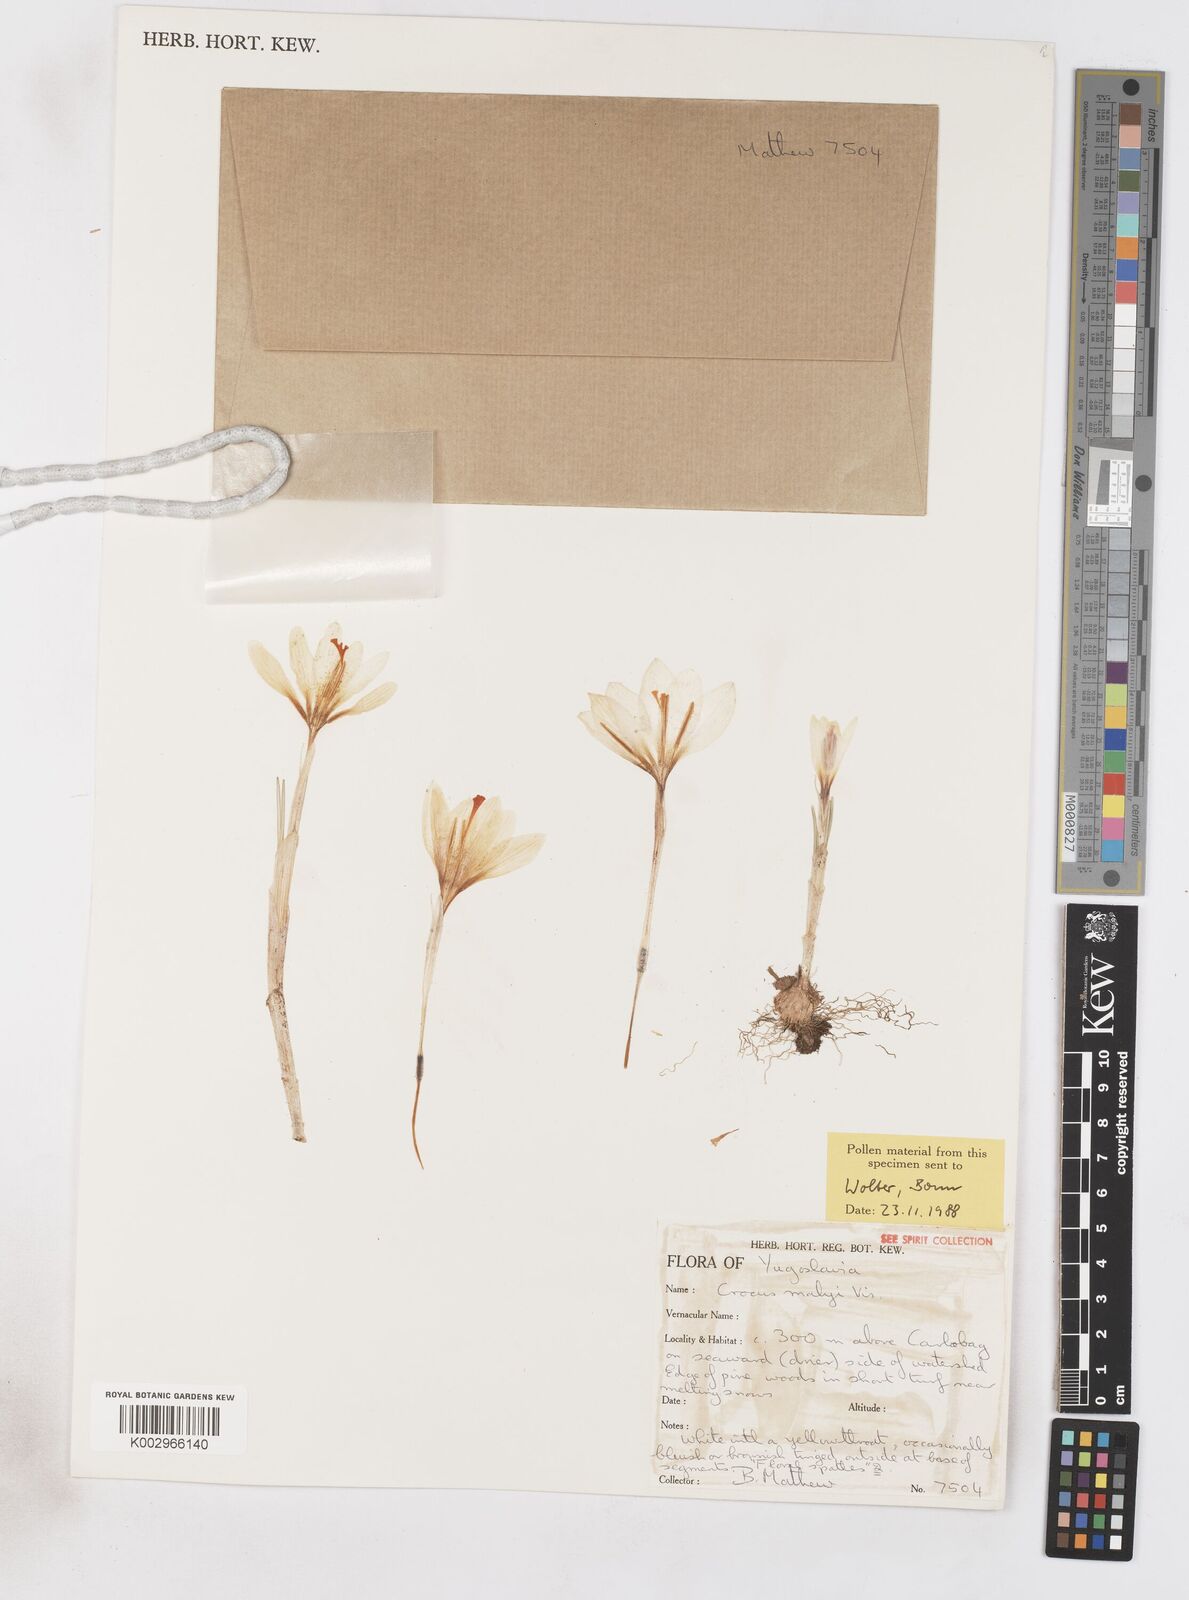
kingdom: Plantae
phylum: Tracheophyta
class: Liliopsida
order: Asparagales
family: Iridaceae
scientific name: Iridaceae
